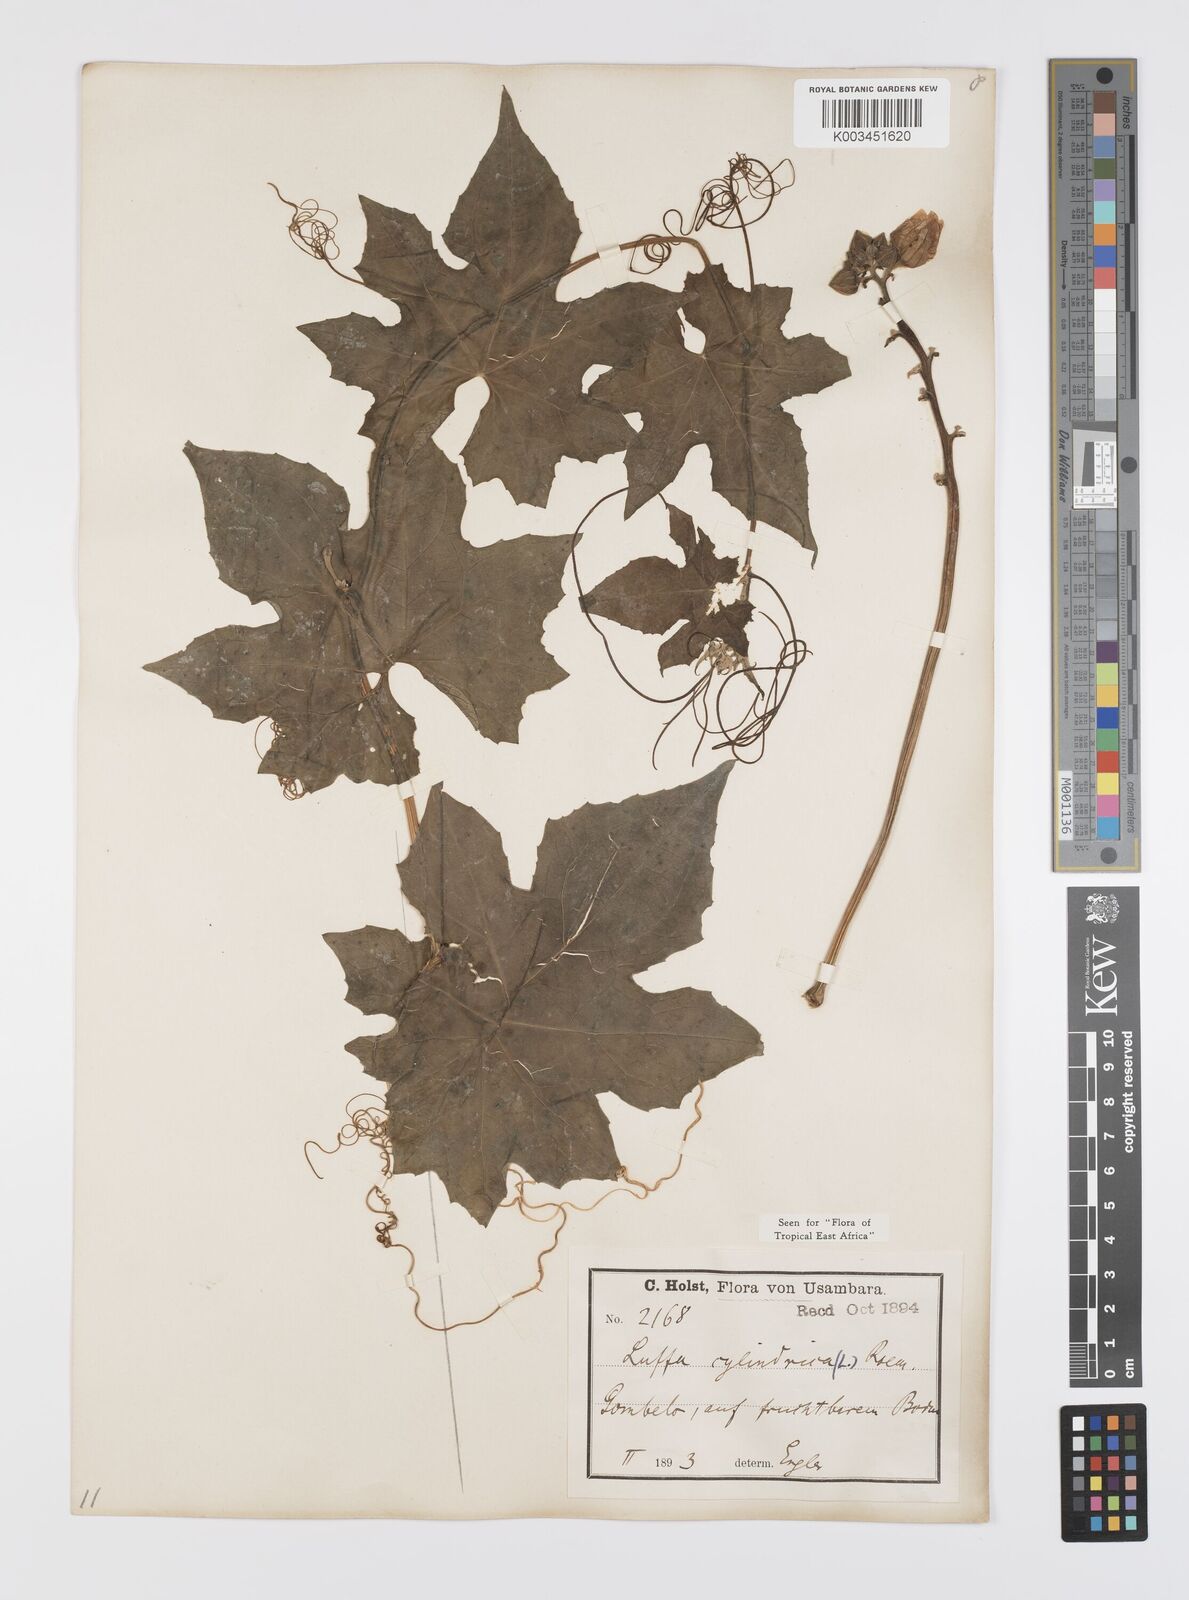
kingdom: Plantae
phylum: Tracheophyta
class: Magnoliopsida
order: Cucurbitales
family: Cucurbitaceae
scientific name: Cucurbitaceae
